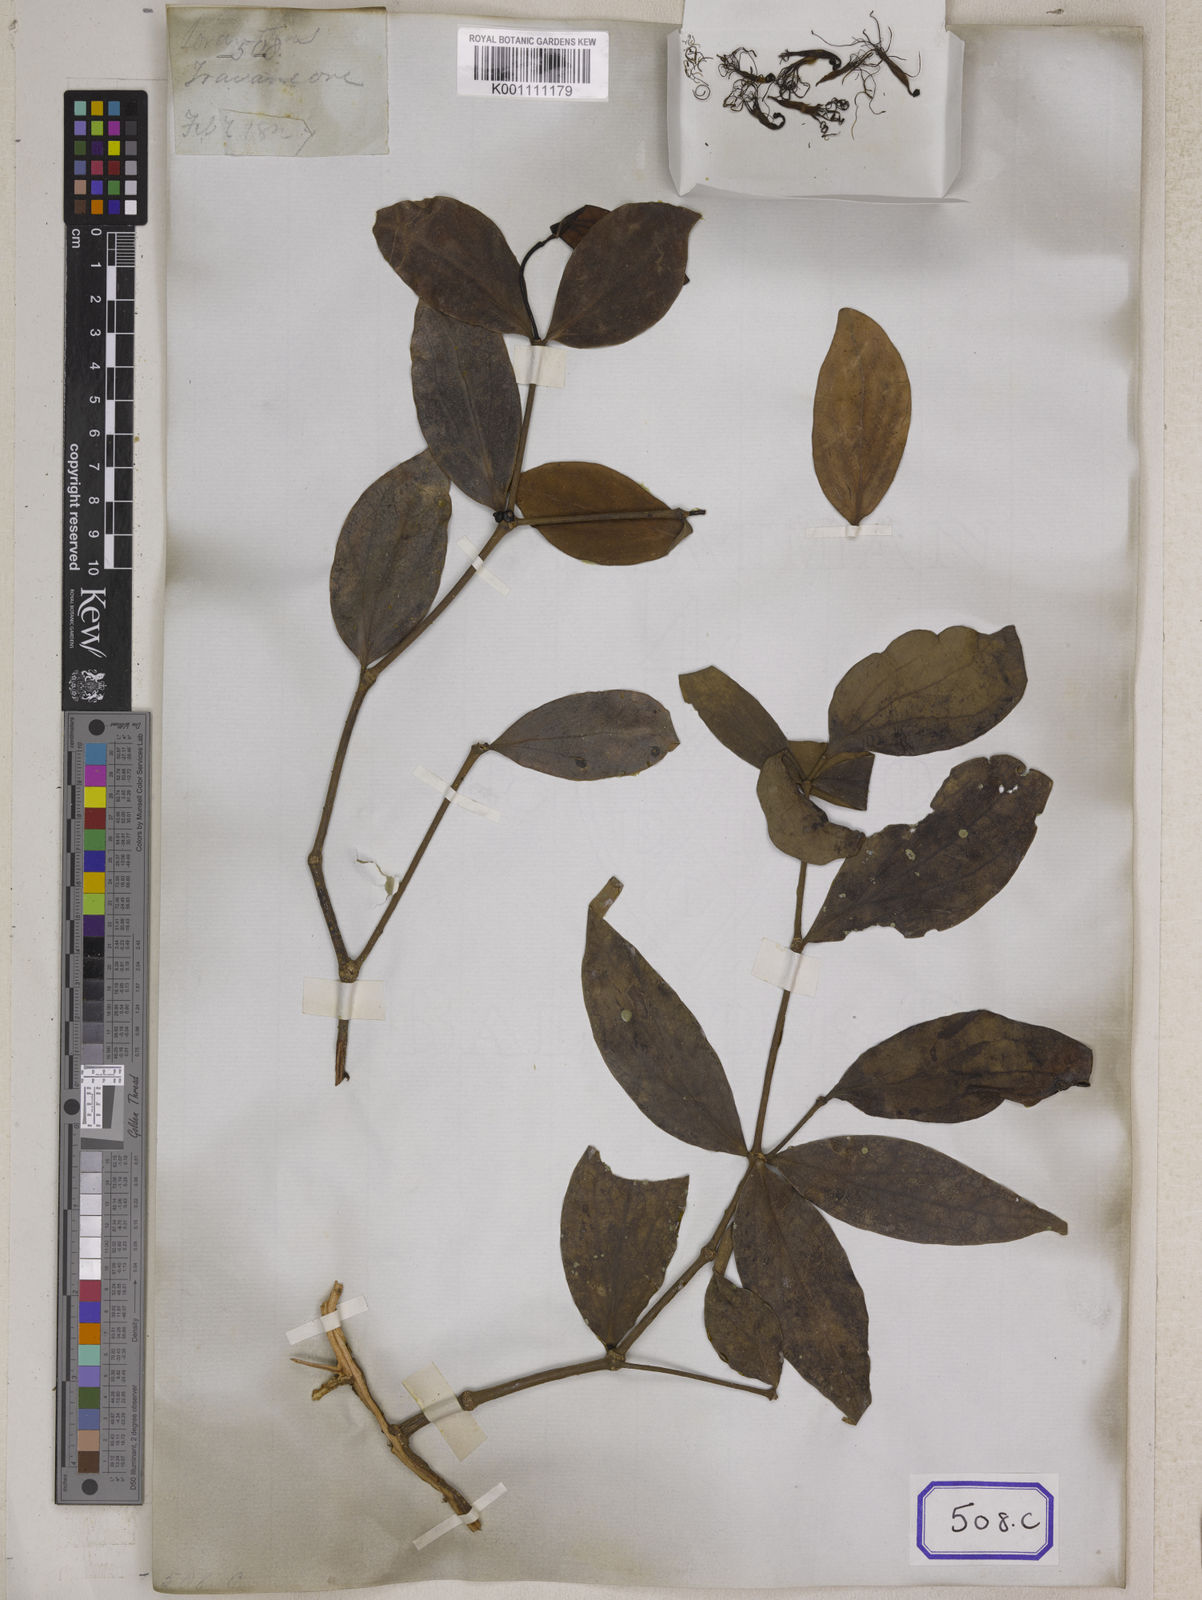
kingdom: Plantae
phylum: Tracheophyta
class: Magnoliopsida
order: Santalales
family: Loranthaceae
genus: Loranthus
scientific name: Loranthus
